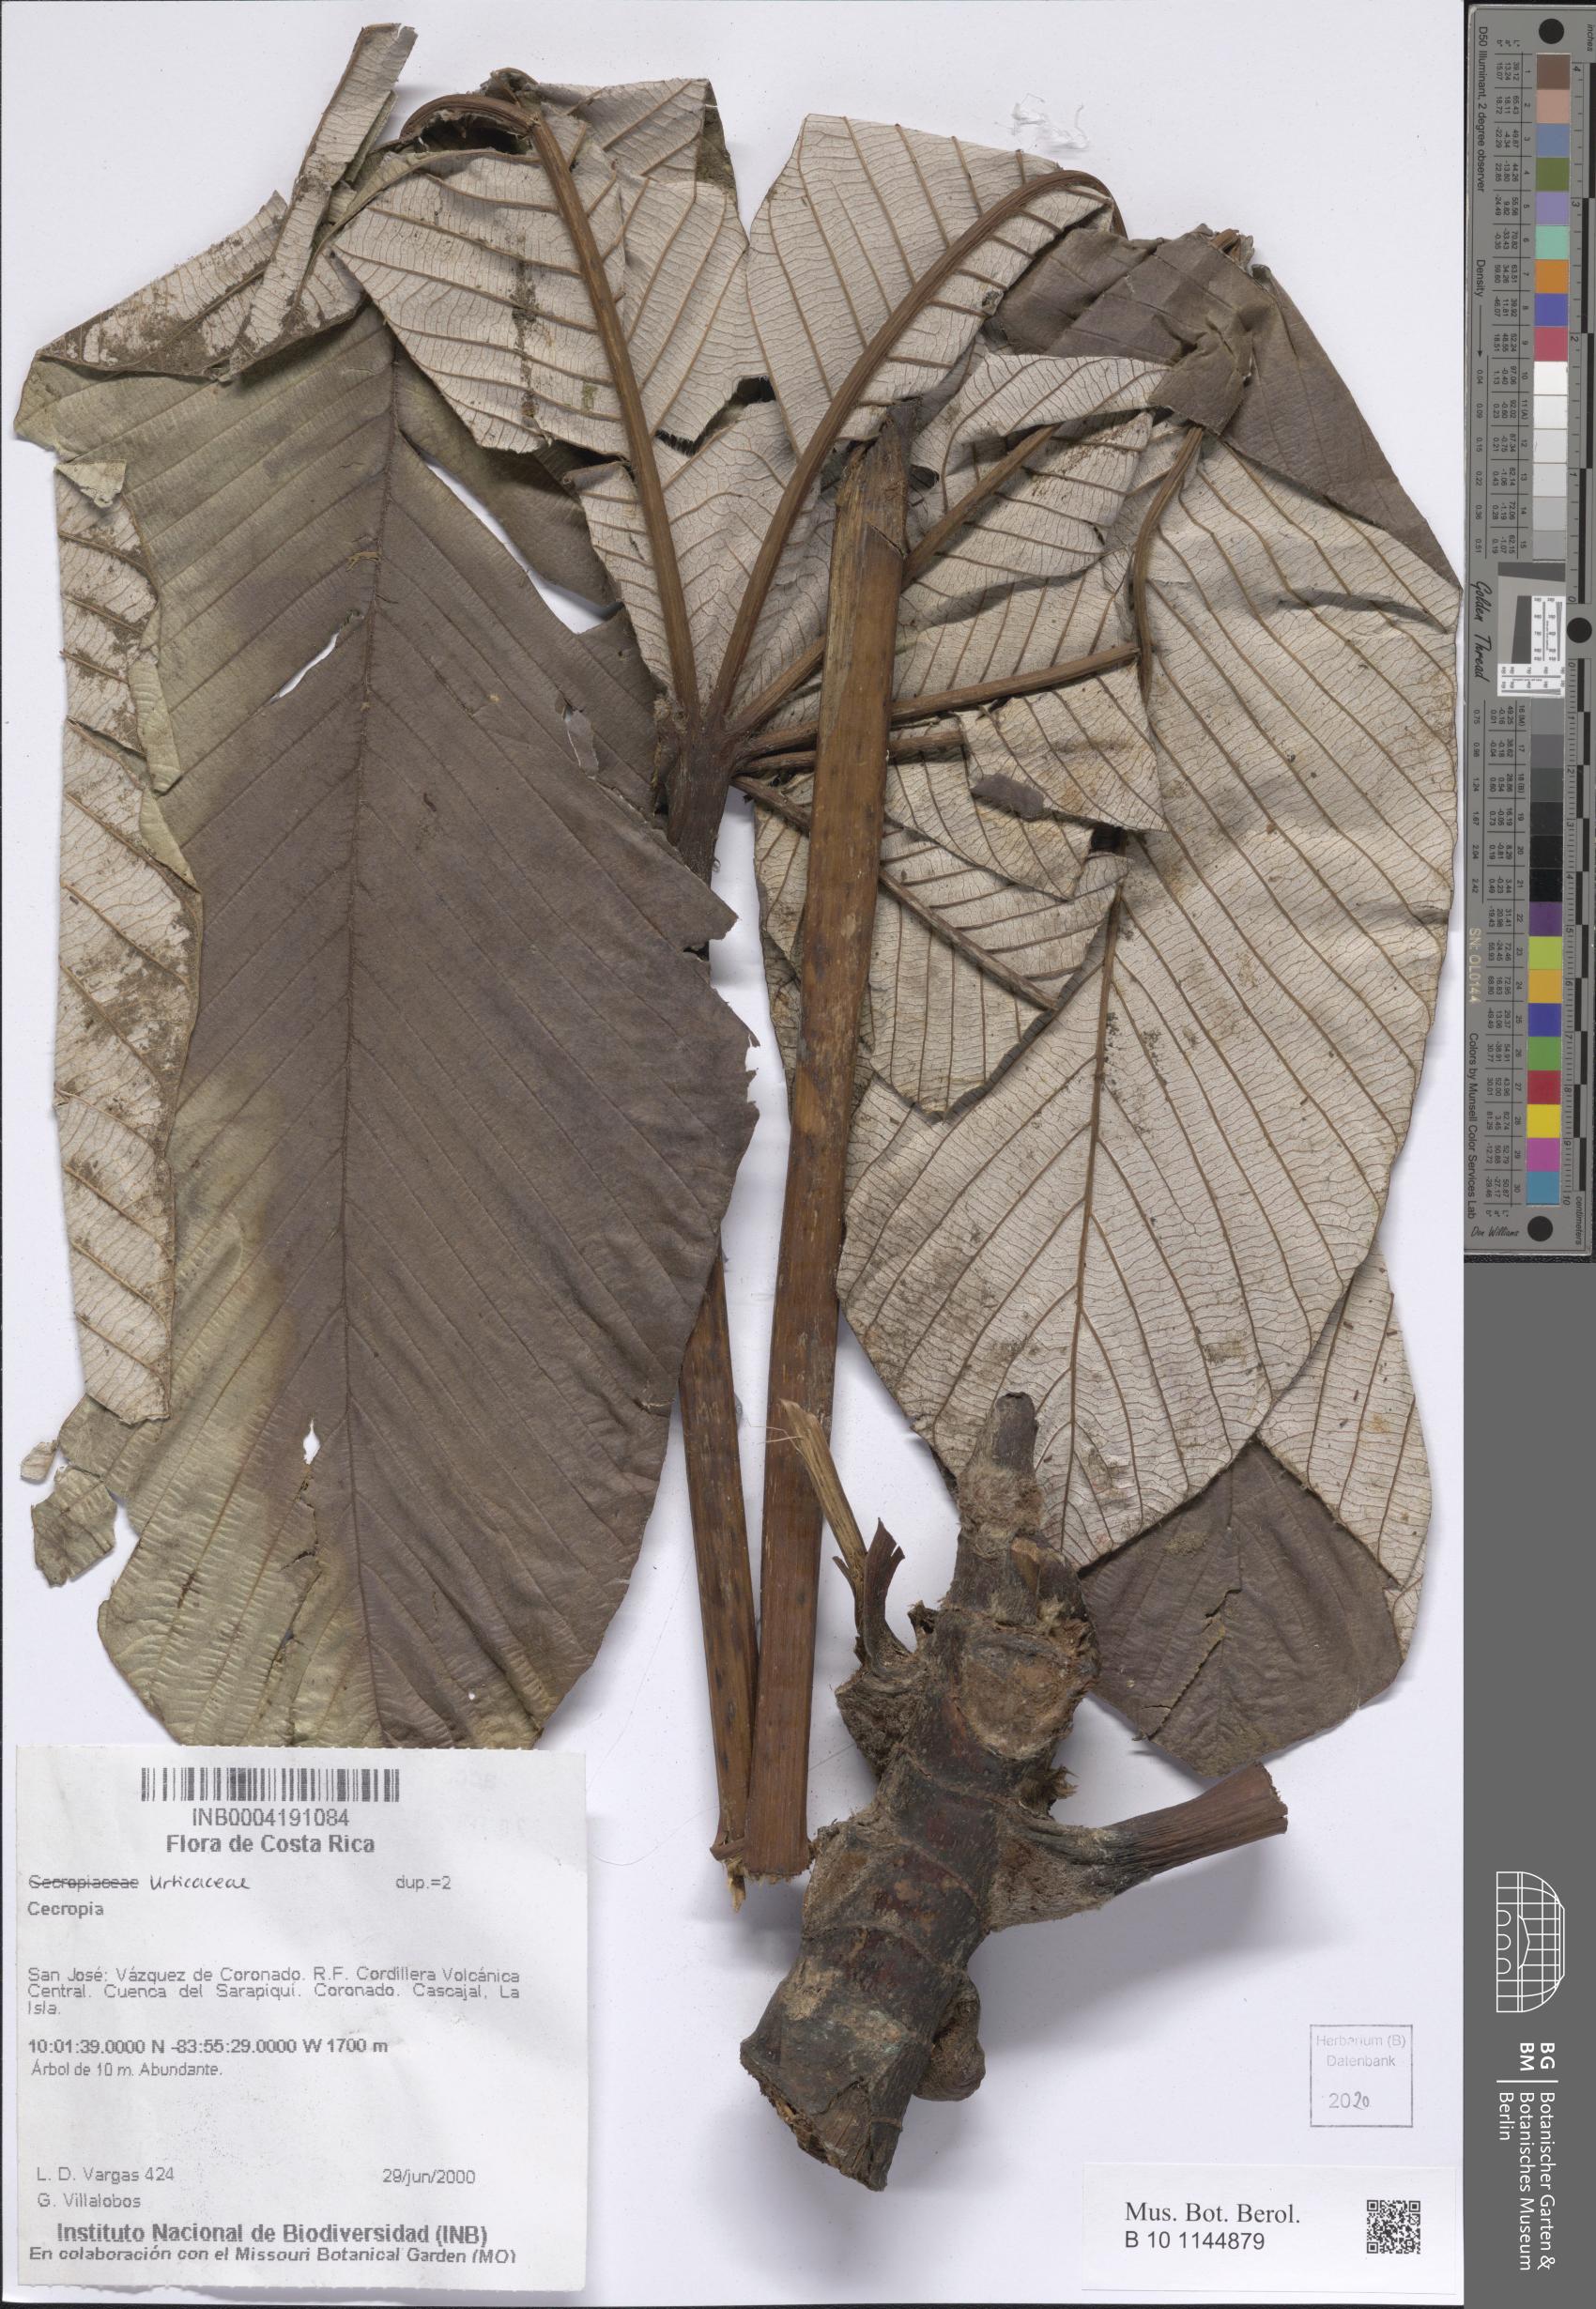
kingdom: Plantae
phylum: Tracheophyta
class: Magnoliopsida
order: Rosales
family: Urticaceae
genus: Cecropia
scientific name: Cecropia
